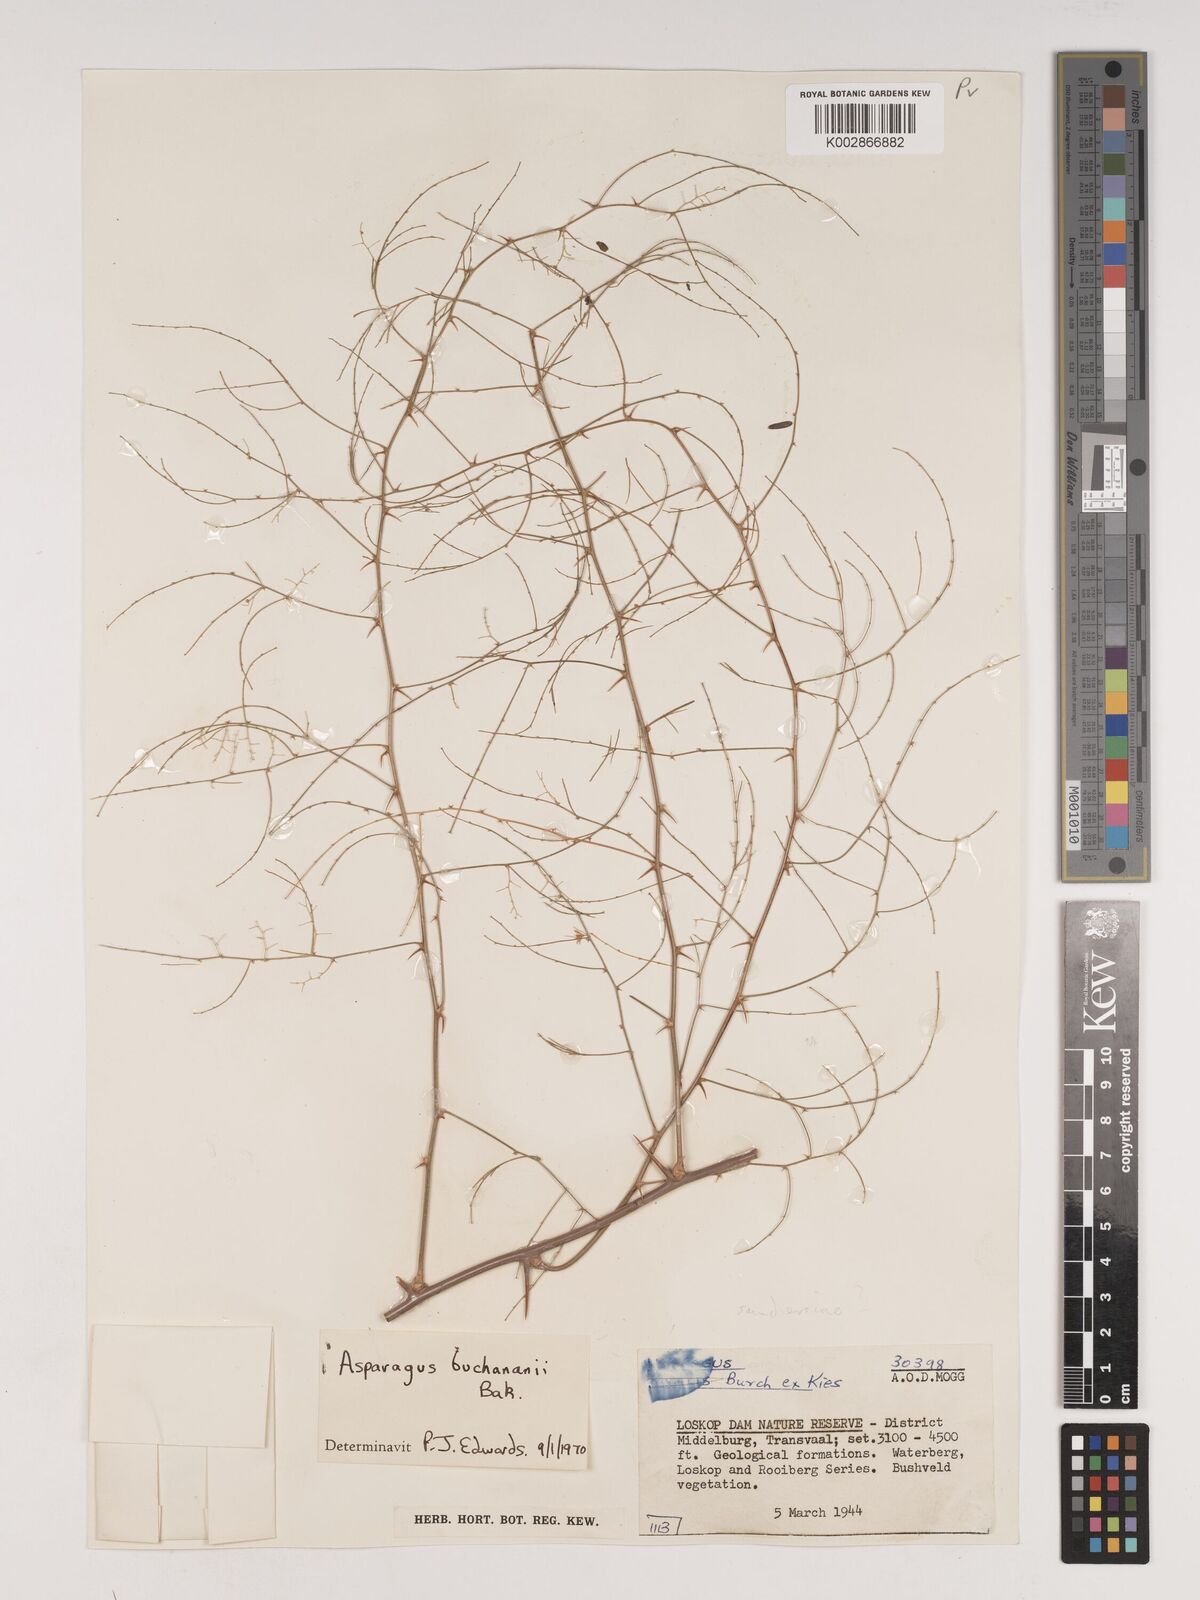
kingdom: Plantae
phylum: Tracheophyta
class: Liliopsida
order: Asparagales
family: Asparagaceae
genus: Asparagus
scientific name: Asparagus buchananii
